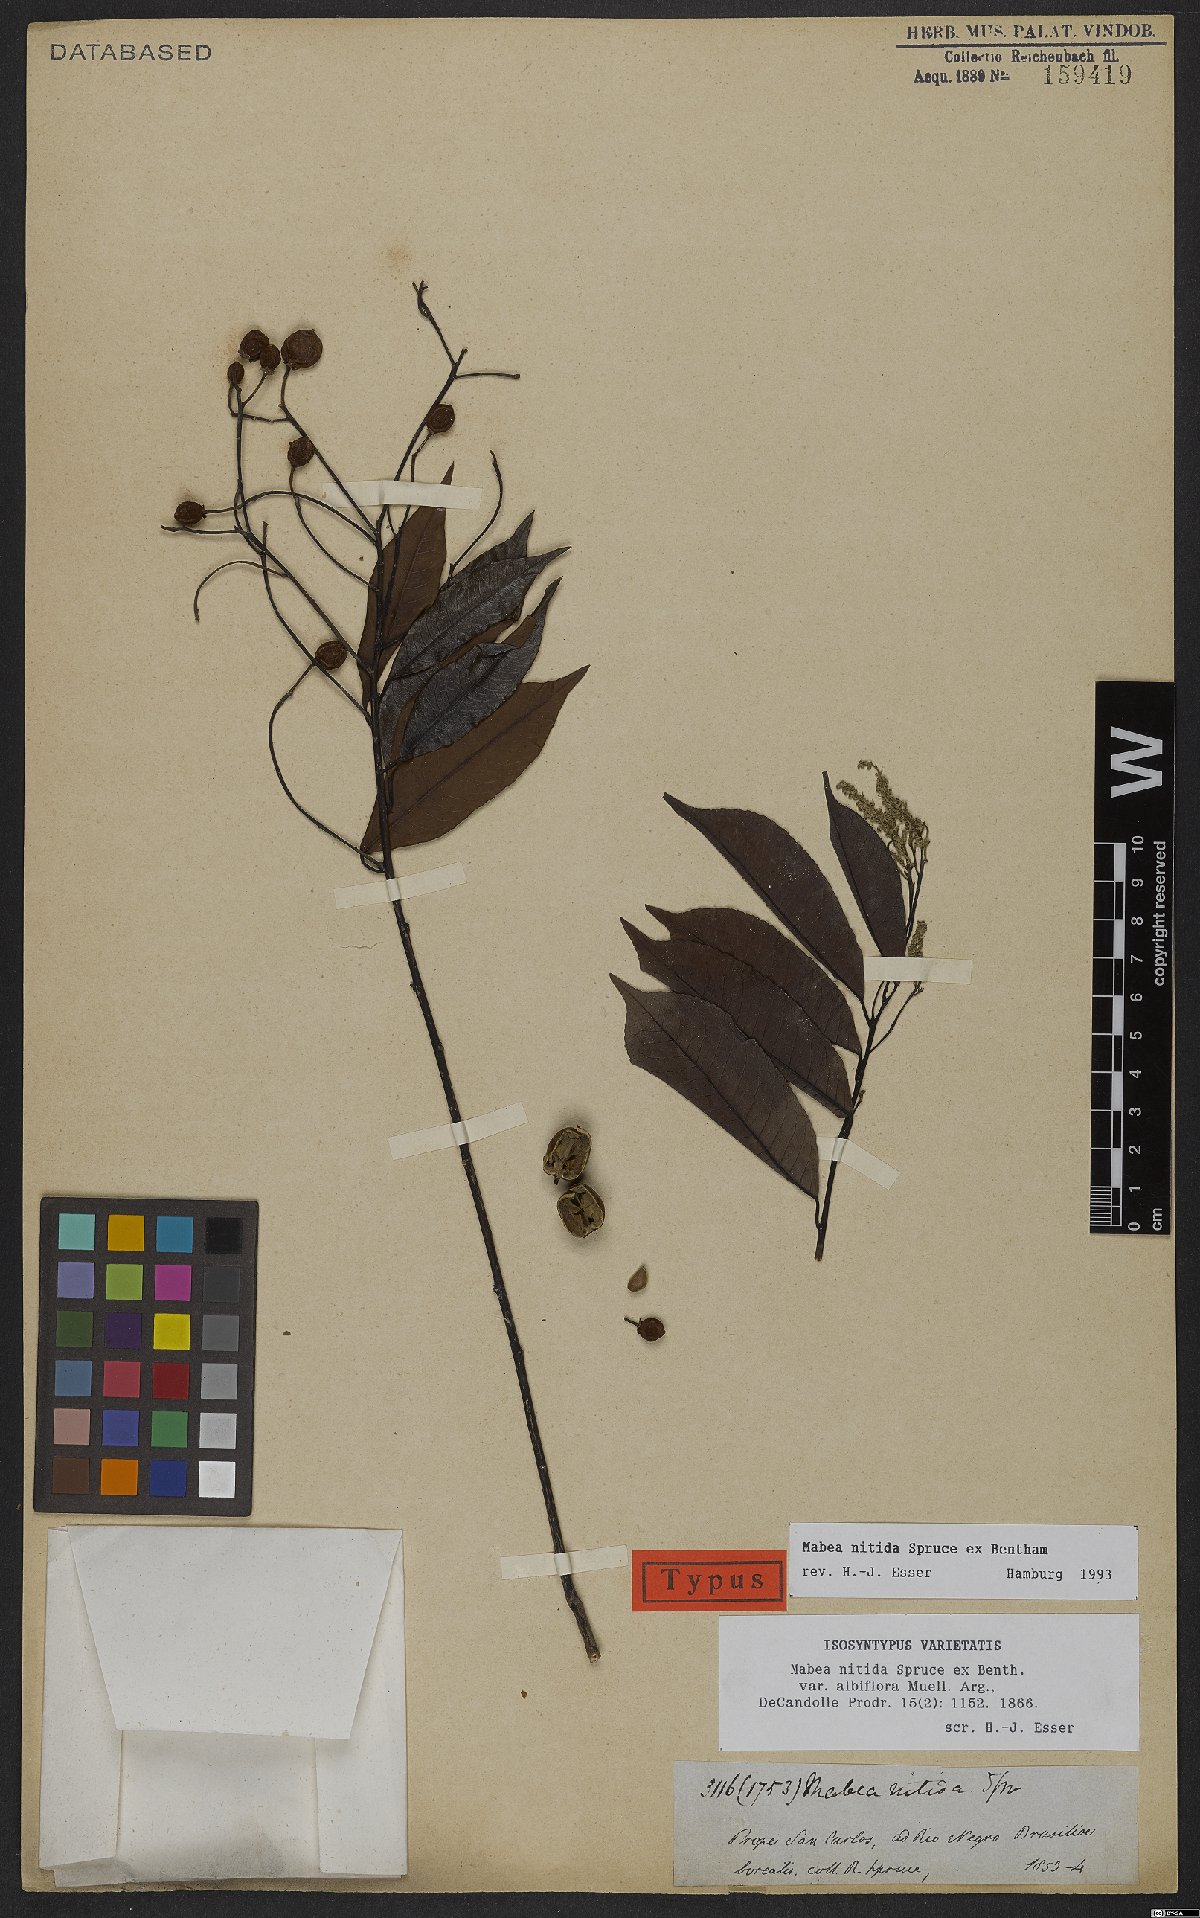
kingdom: Plantae
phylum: Tracheophyta
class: Magnoliopsida
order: Malpighiales
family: Euphorbiaceae
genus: Mabea
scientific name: Mabea nitida
